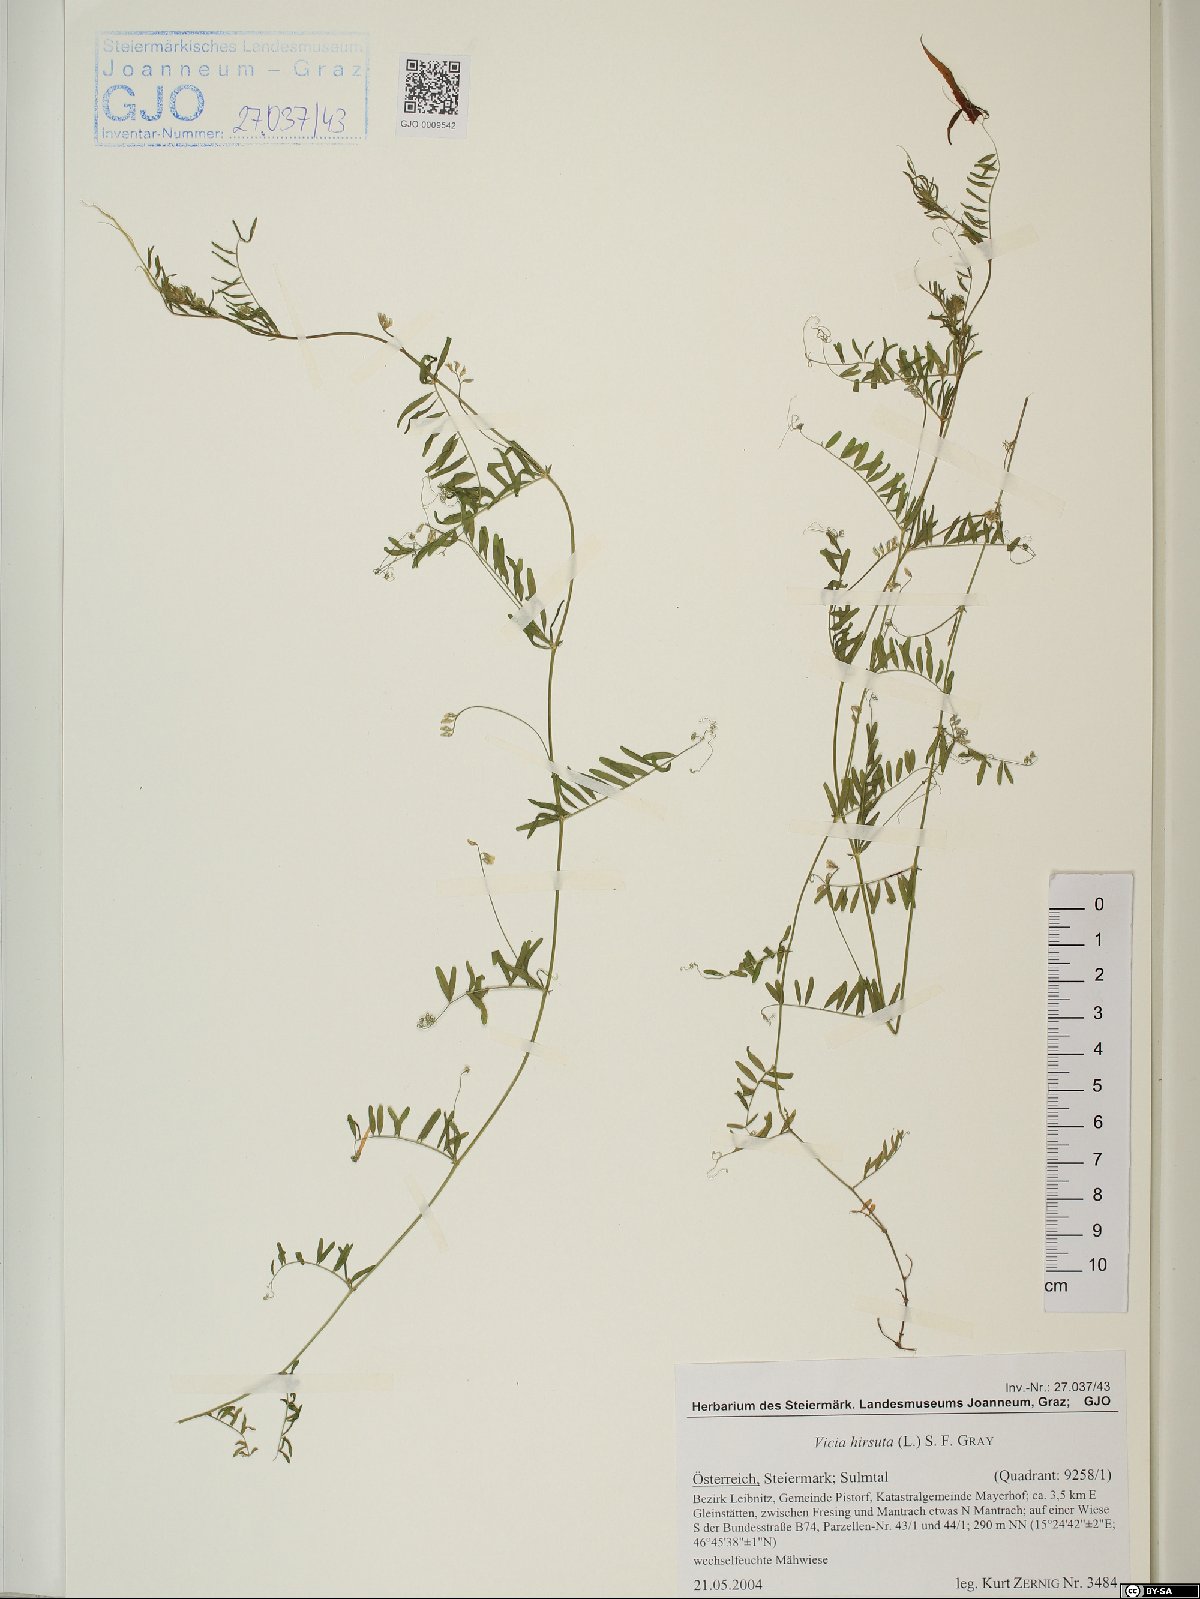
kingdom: Plantae
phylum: Tracheophyta
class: Magnoliopsida
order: Fabales
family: Fabaceae
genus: Vicia
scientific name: Vicia hirsuta
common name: Tiny vetch
